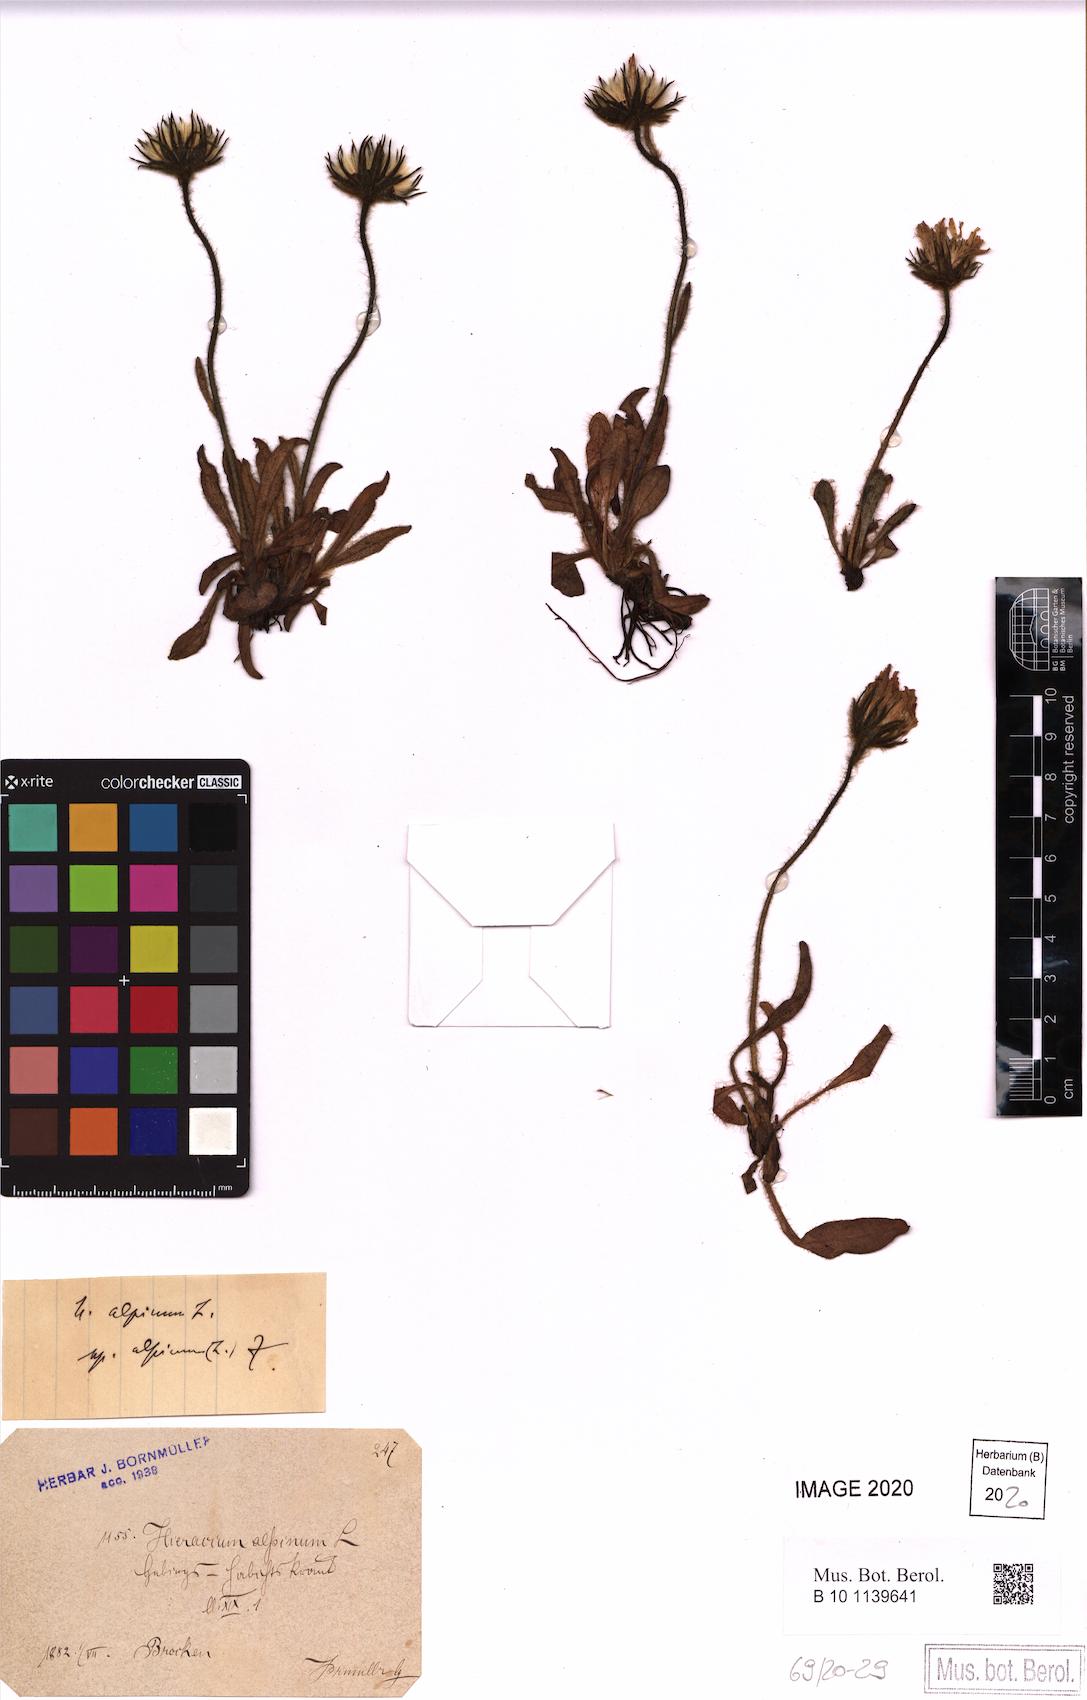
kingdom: Plantae
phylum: Tracheophyta
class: Magnoliopsida
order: Asterales
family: Asteraceae
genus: Hieracium
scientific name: Hieracium alpinum
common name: Alpine hawkweed
